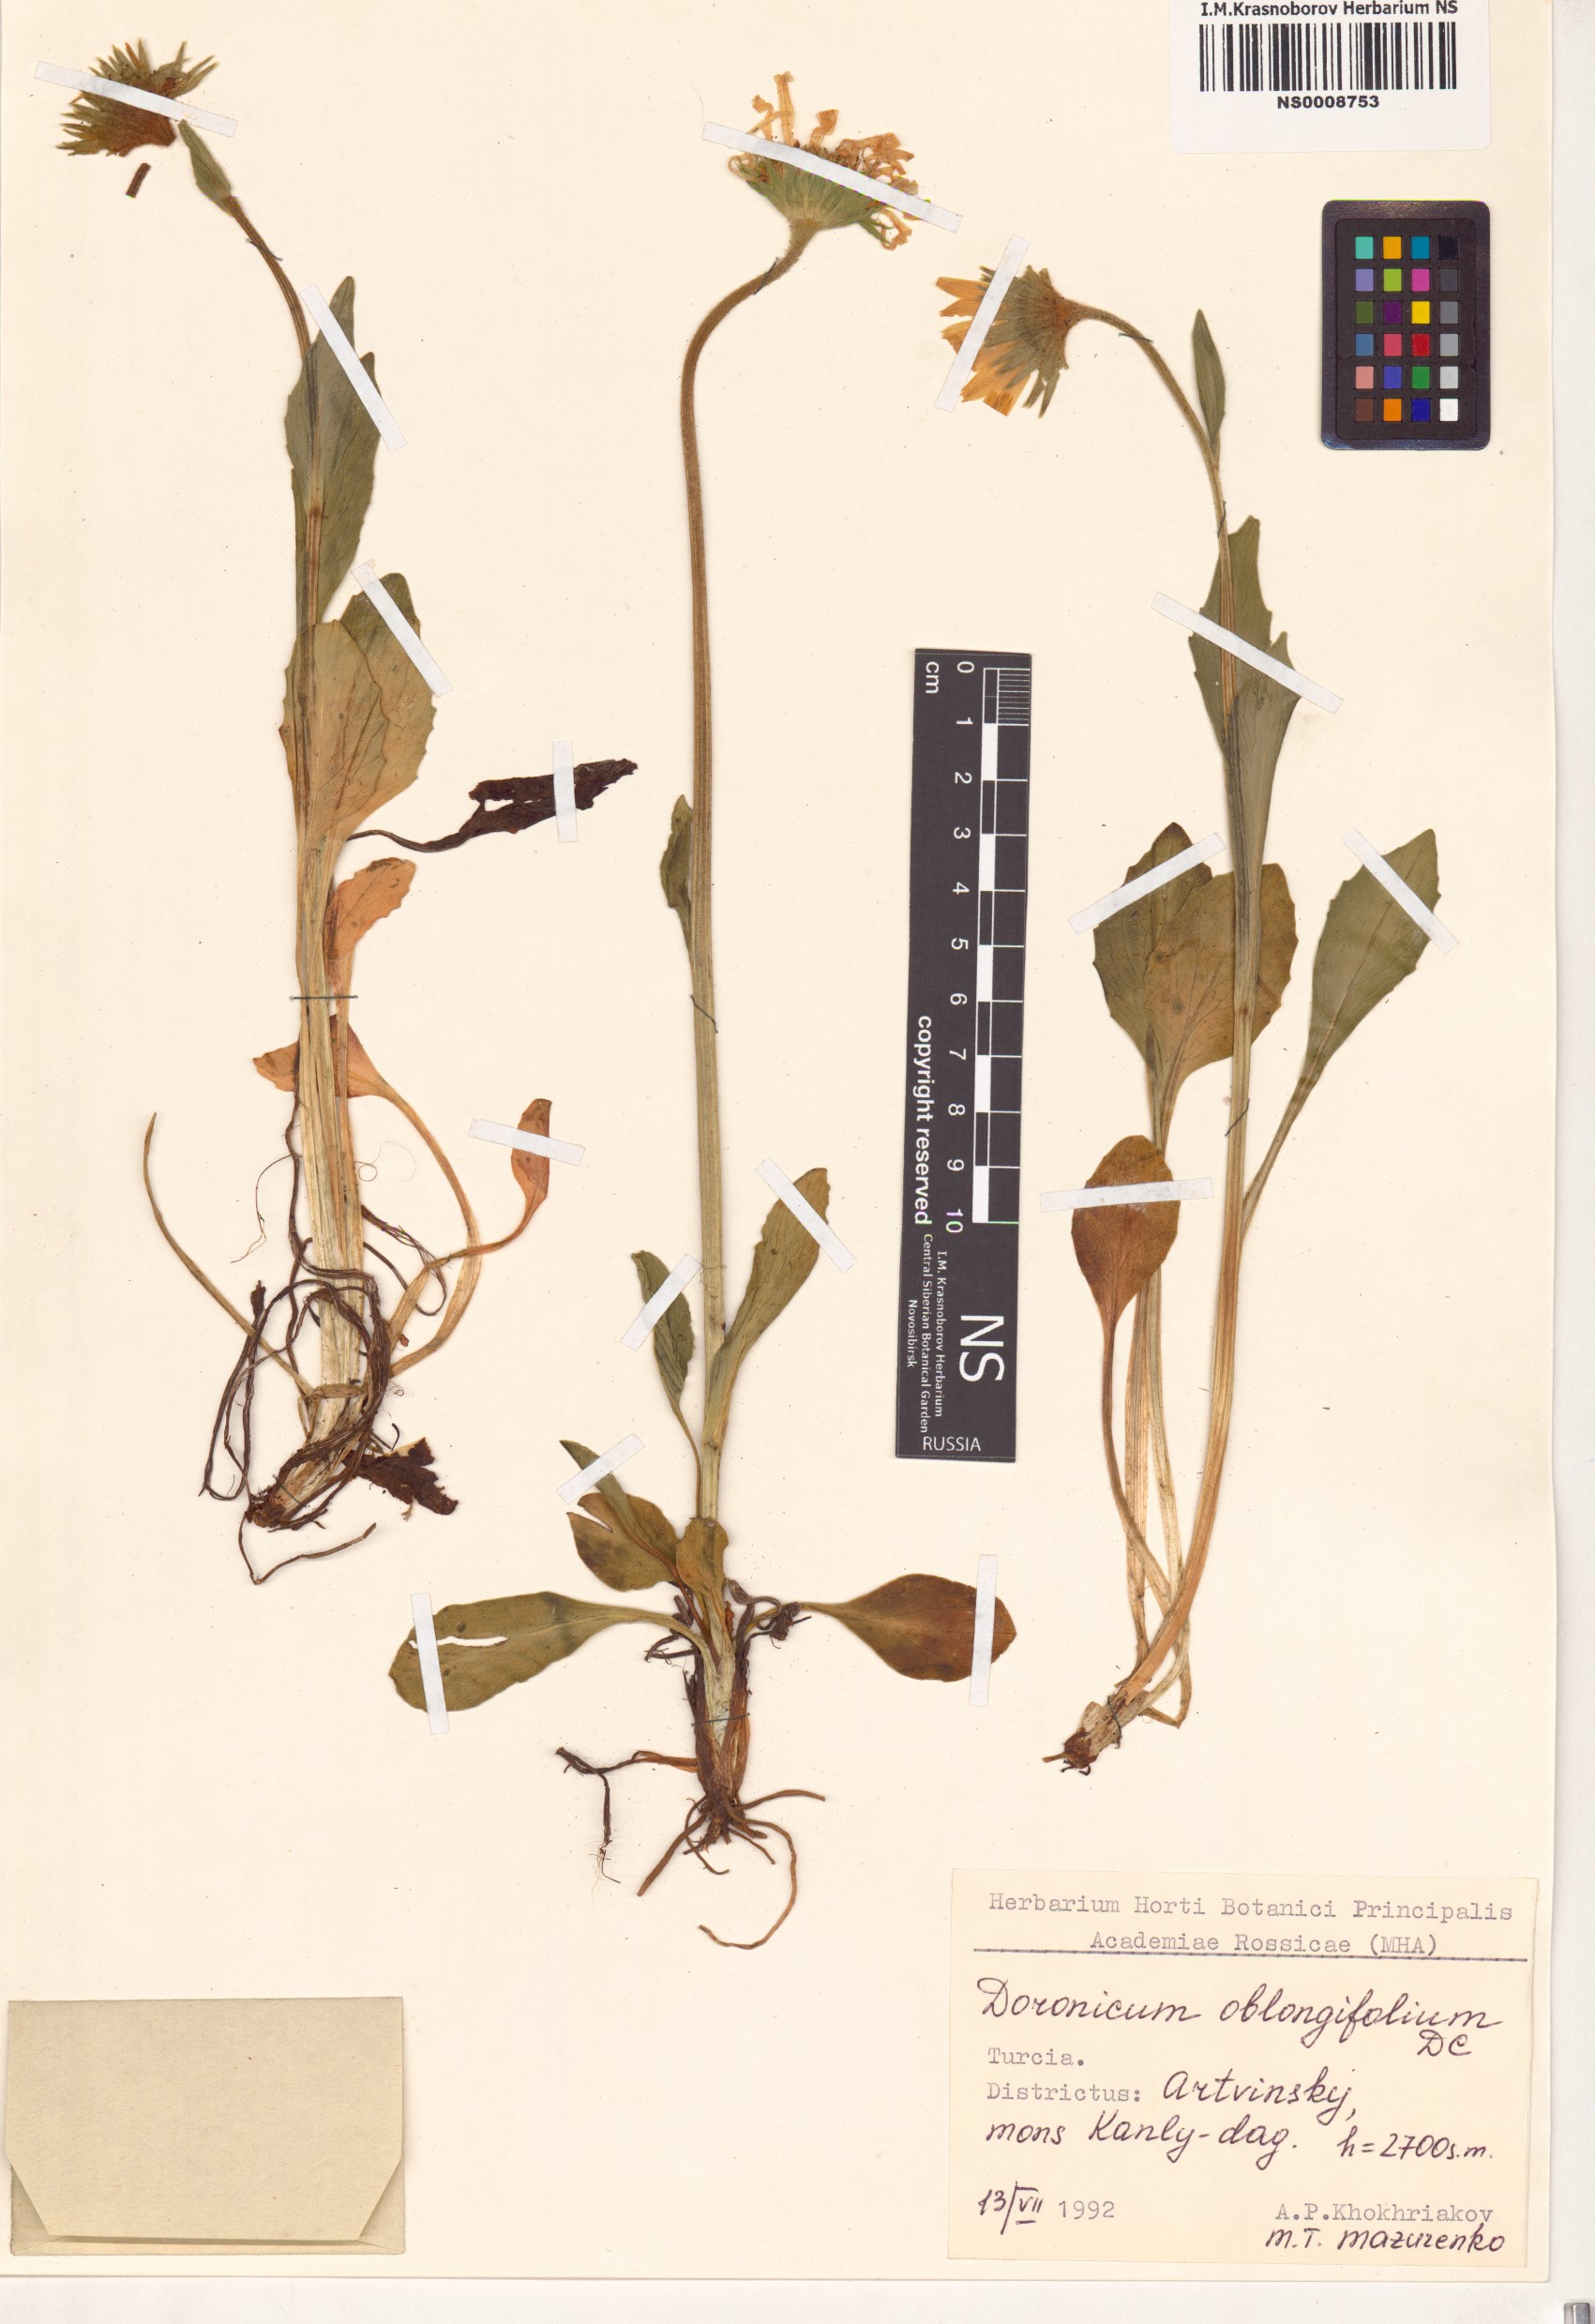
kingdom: Plantae
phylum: Tracheophyta
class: Magnoliopsida
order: Asterales
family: Asteraceae
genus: Doronicum
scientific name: Doronicum oblongifolium
